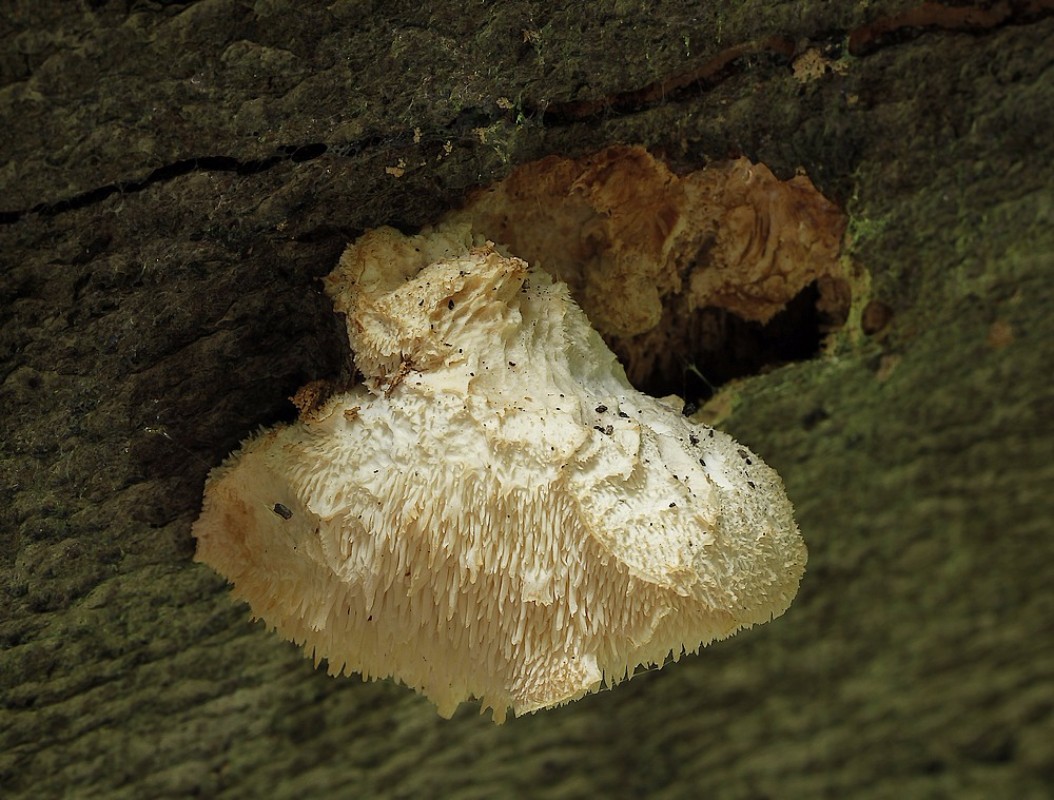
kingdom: Fungi
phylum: Basidiomycota
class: Agaricomycetes
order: Russulales
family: Hericiaceae
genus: Hericium
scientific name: Hericium cirrhatum
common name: børstepigsvamp
